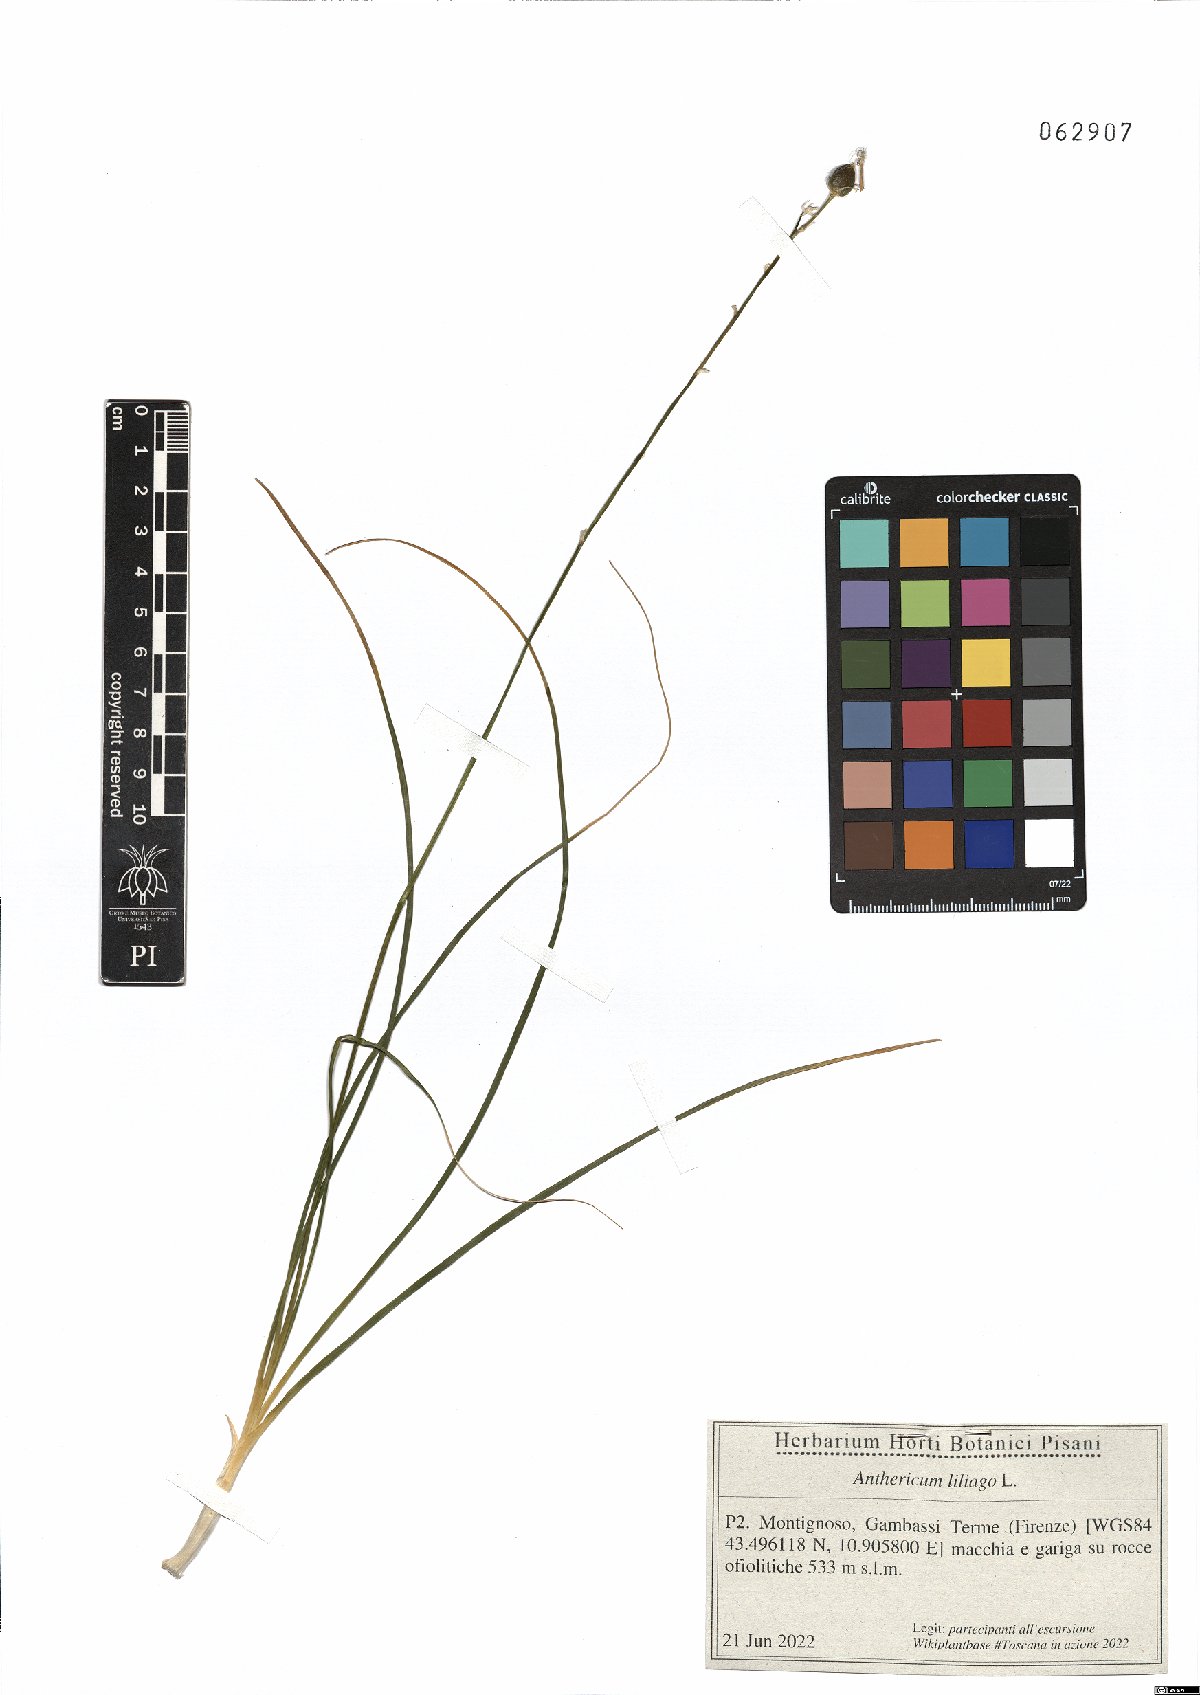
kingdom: Plantae
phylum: Tracheophyta
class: Liliopsida
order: Asparagales
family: Asparagaceae
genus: Anthericum
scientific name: Anthericum liliago
